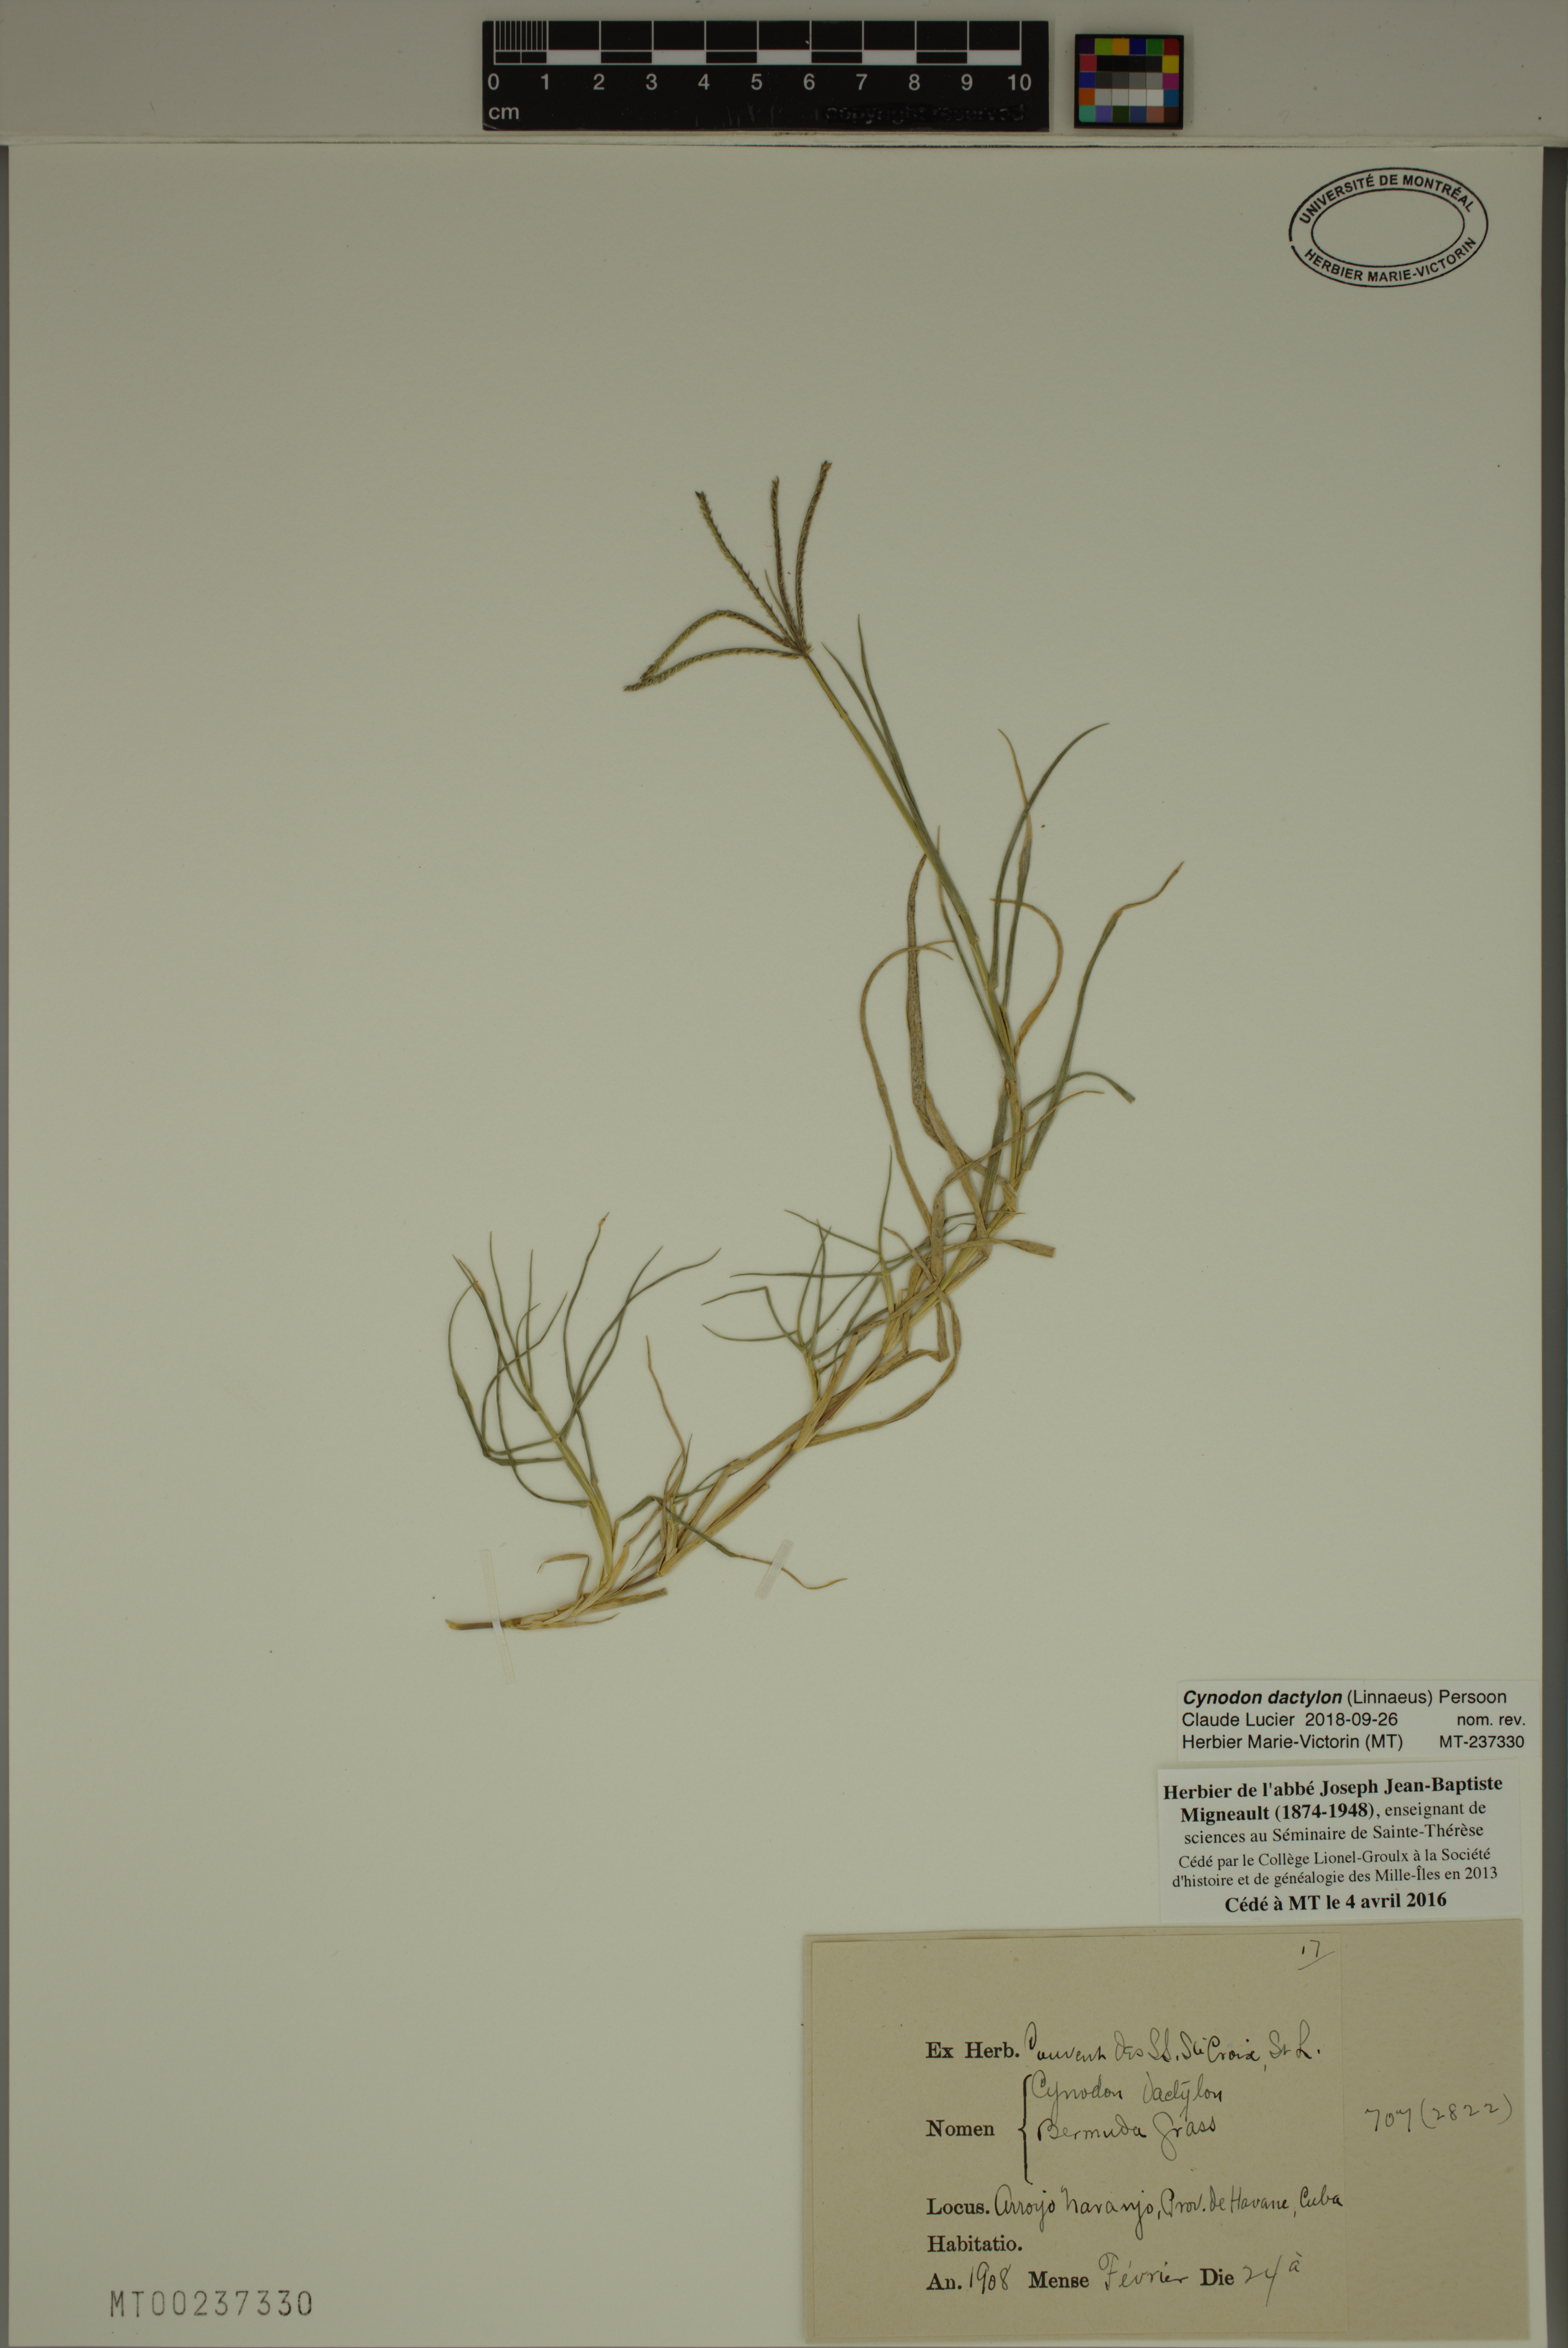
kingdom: Plantae
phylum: Tracheophyta
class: Liliopsida
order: Poales
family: Poaceae
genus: Cynodon
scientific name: Cynodon dactylon
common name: Bermuda grass
